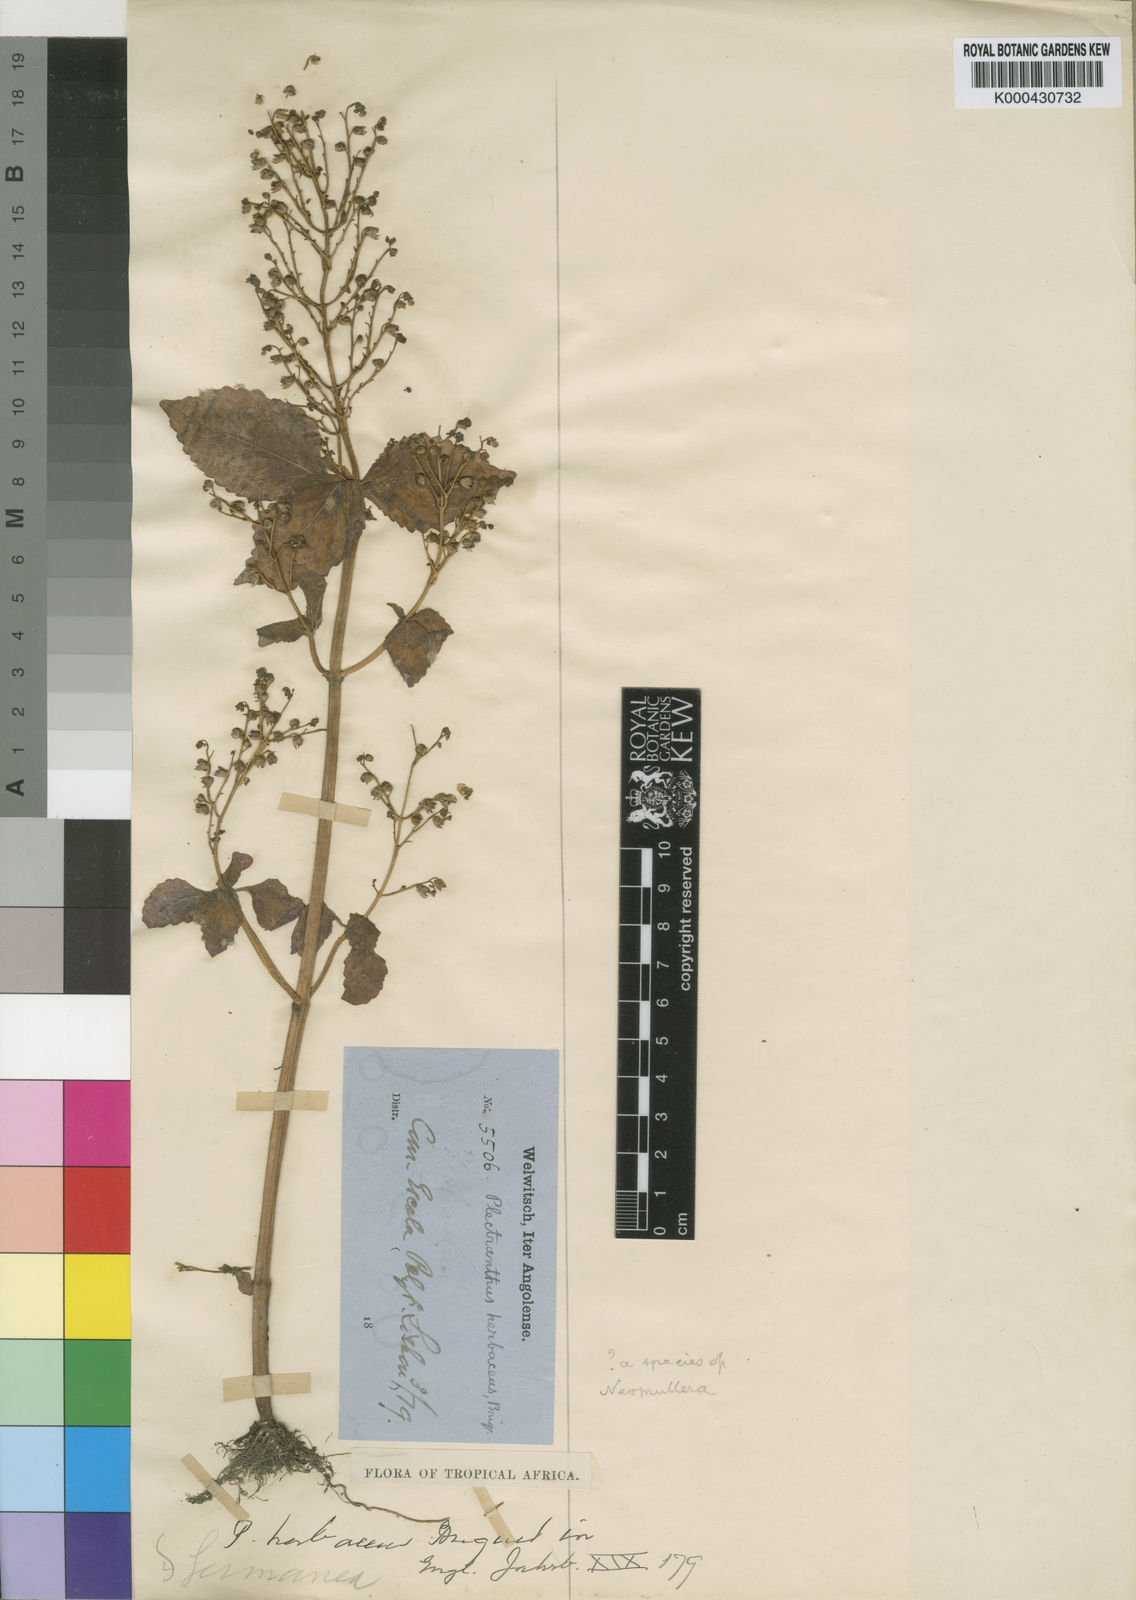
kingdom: Plantae
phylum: Tracheophyta
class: Magnoliopsida
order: Lamiales
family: Lamiaceae
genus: Coleus
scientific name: Coleus tenuicaulis
